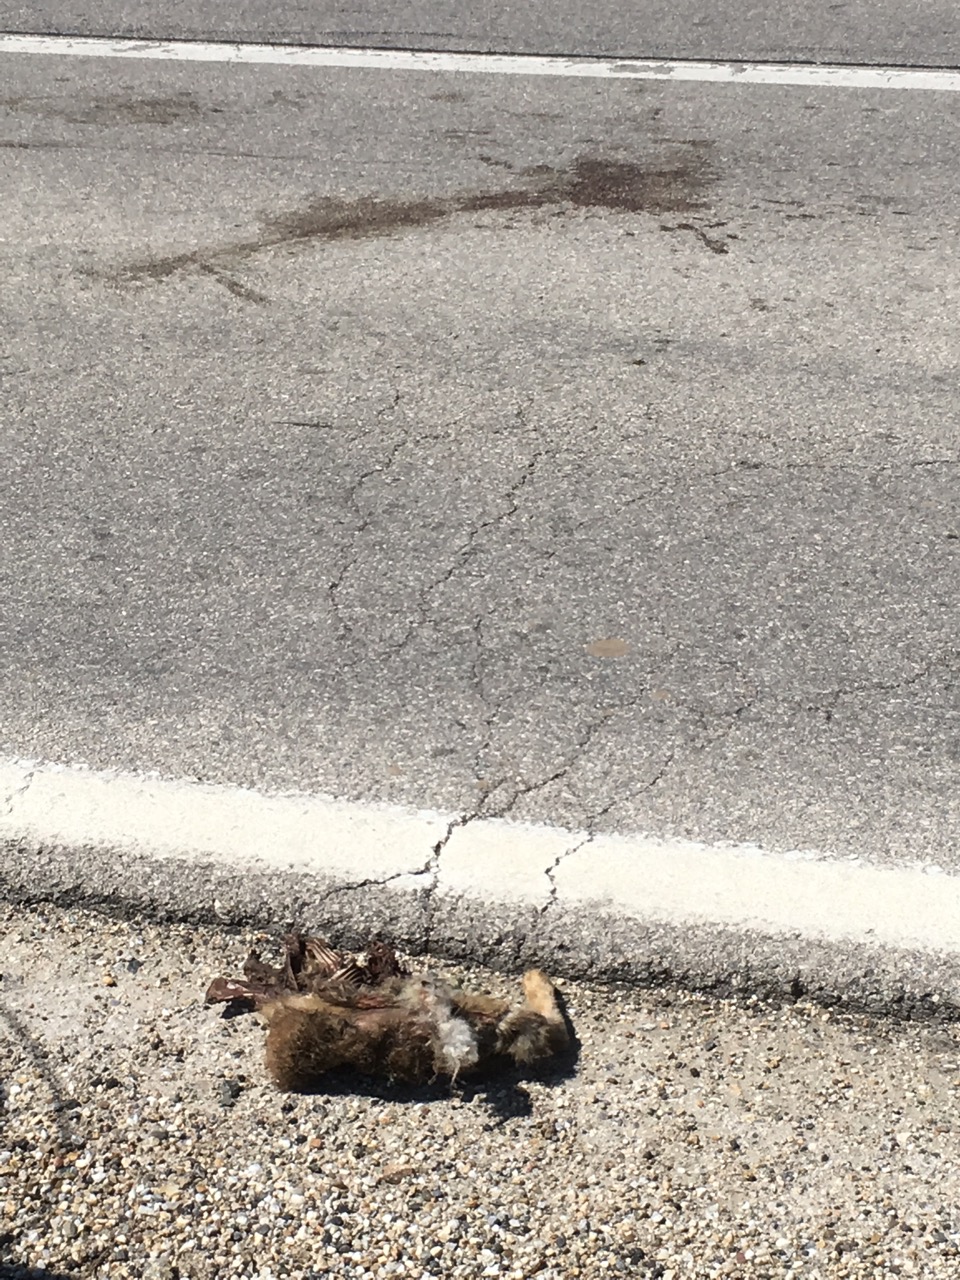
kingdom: Animalia
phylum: Chordata
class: Mammalia
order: Lagomorpha
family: Leporidae
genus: Lepus
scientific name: Lepus europaeus
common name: European hare
